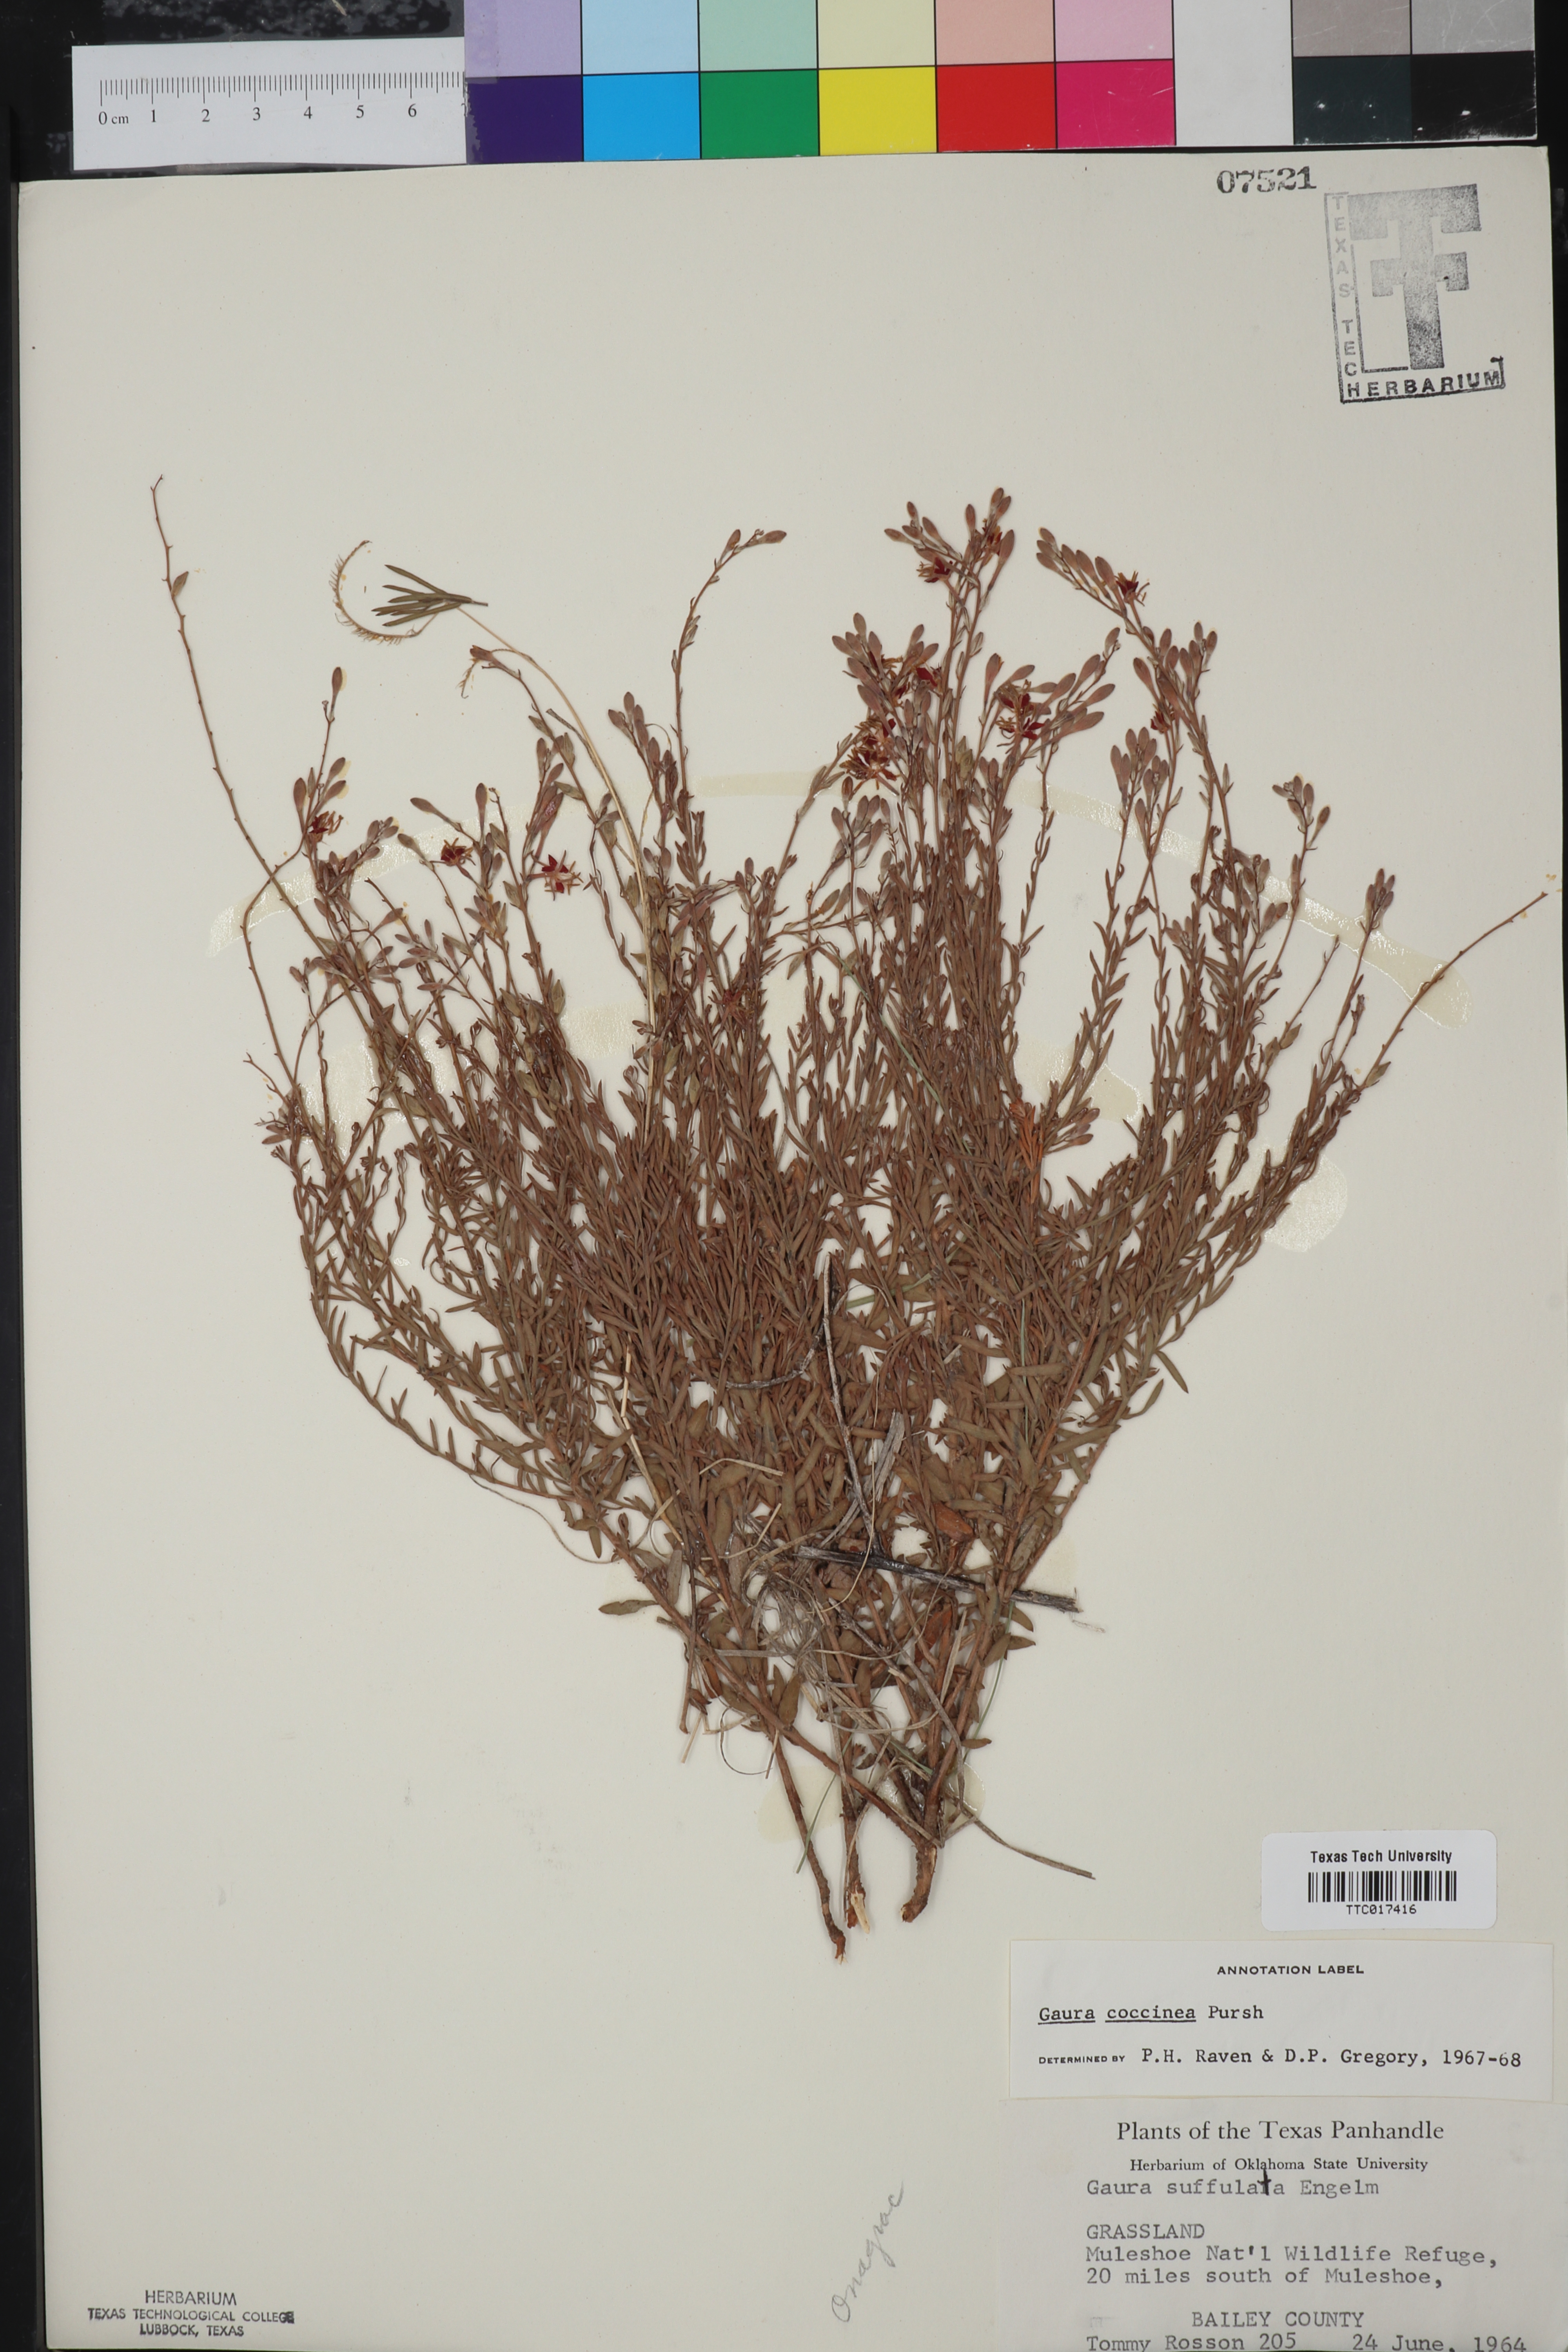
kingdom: Plantae
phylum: Tracheophyta
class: Magnoliopsida
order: Myrtales
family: Onagraceae
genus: Oenothera
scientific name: Oenothera suffrutescens
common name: Scarlet beeblossom
